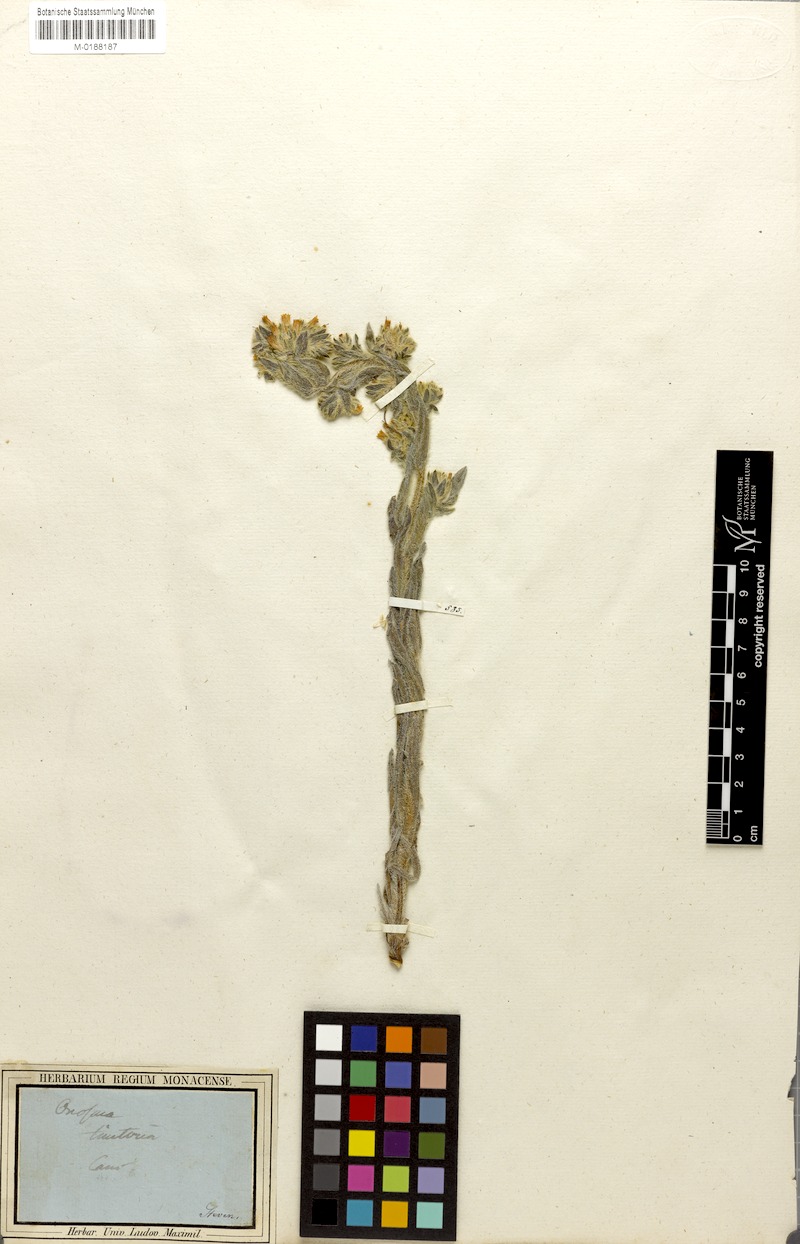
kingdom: Plantae
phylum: Tracheophyta
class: Magnoliopsida
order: Boraginales
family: Boraginaceae
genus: Onosma
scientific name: Onosma tinctoria
